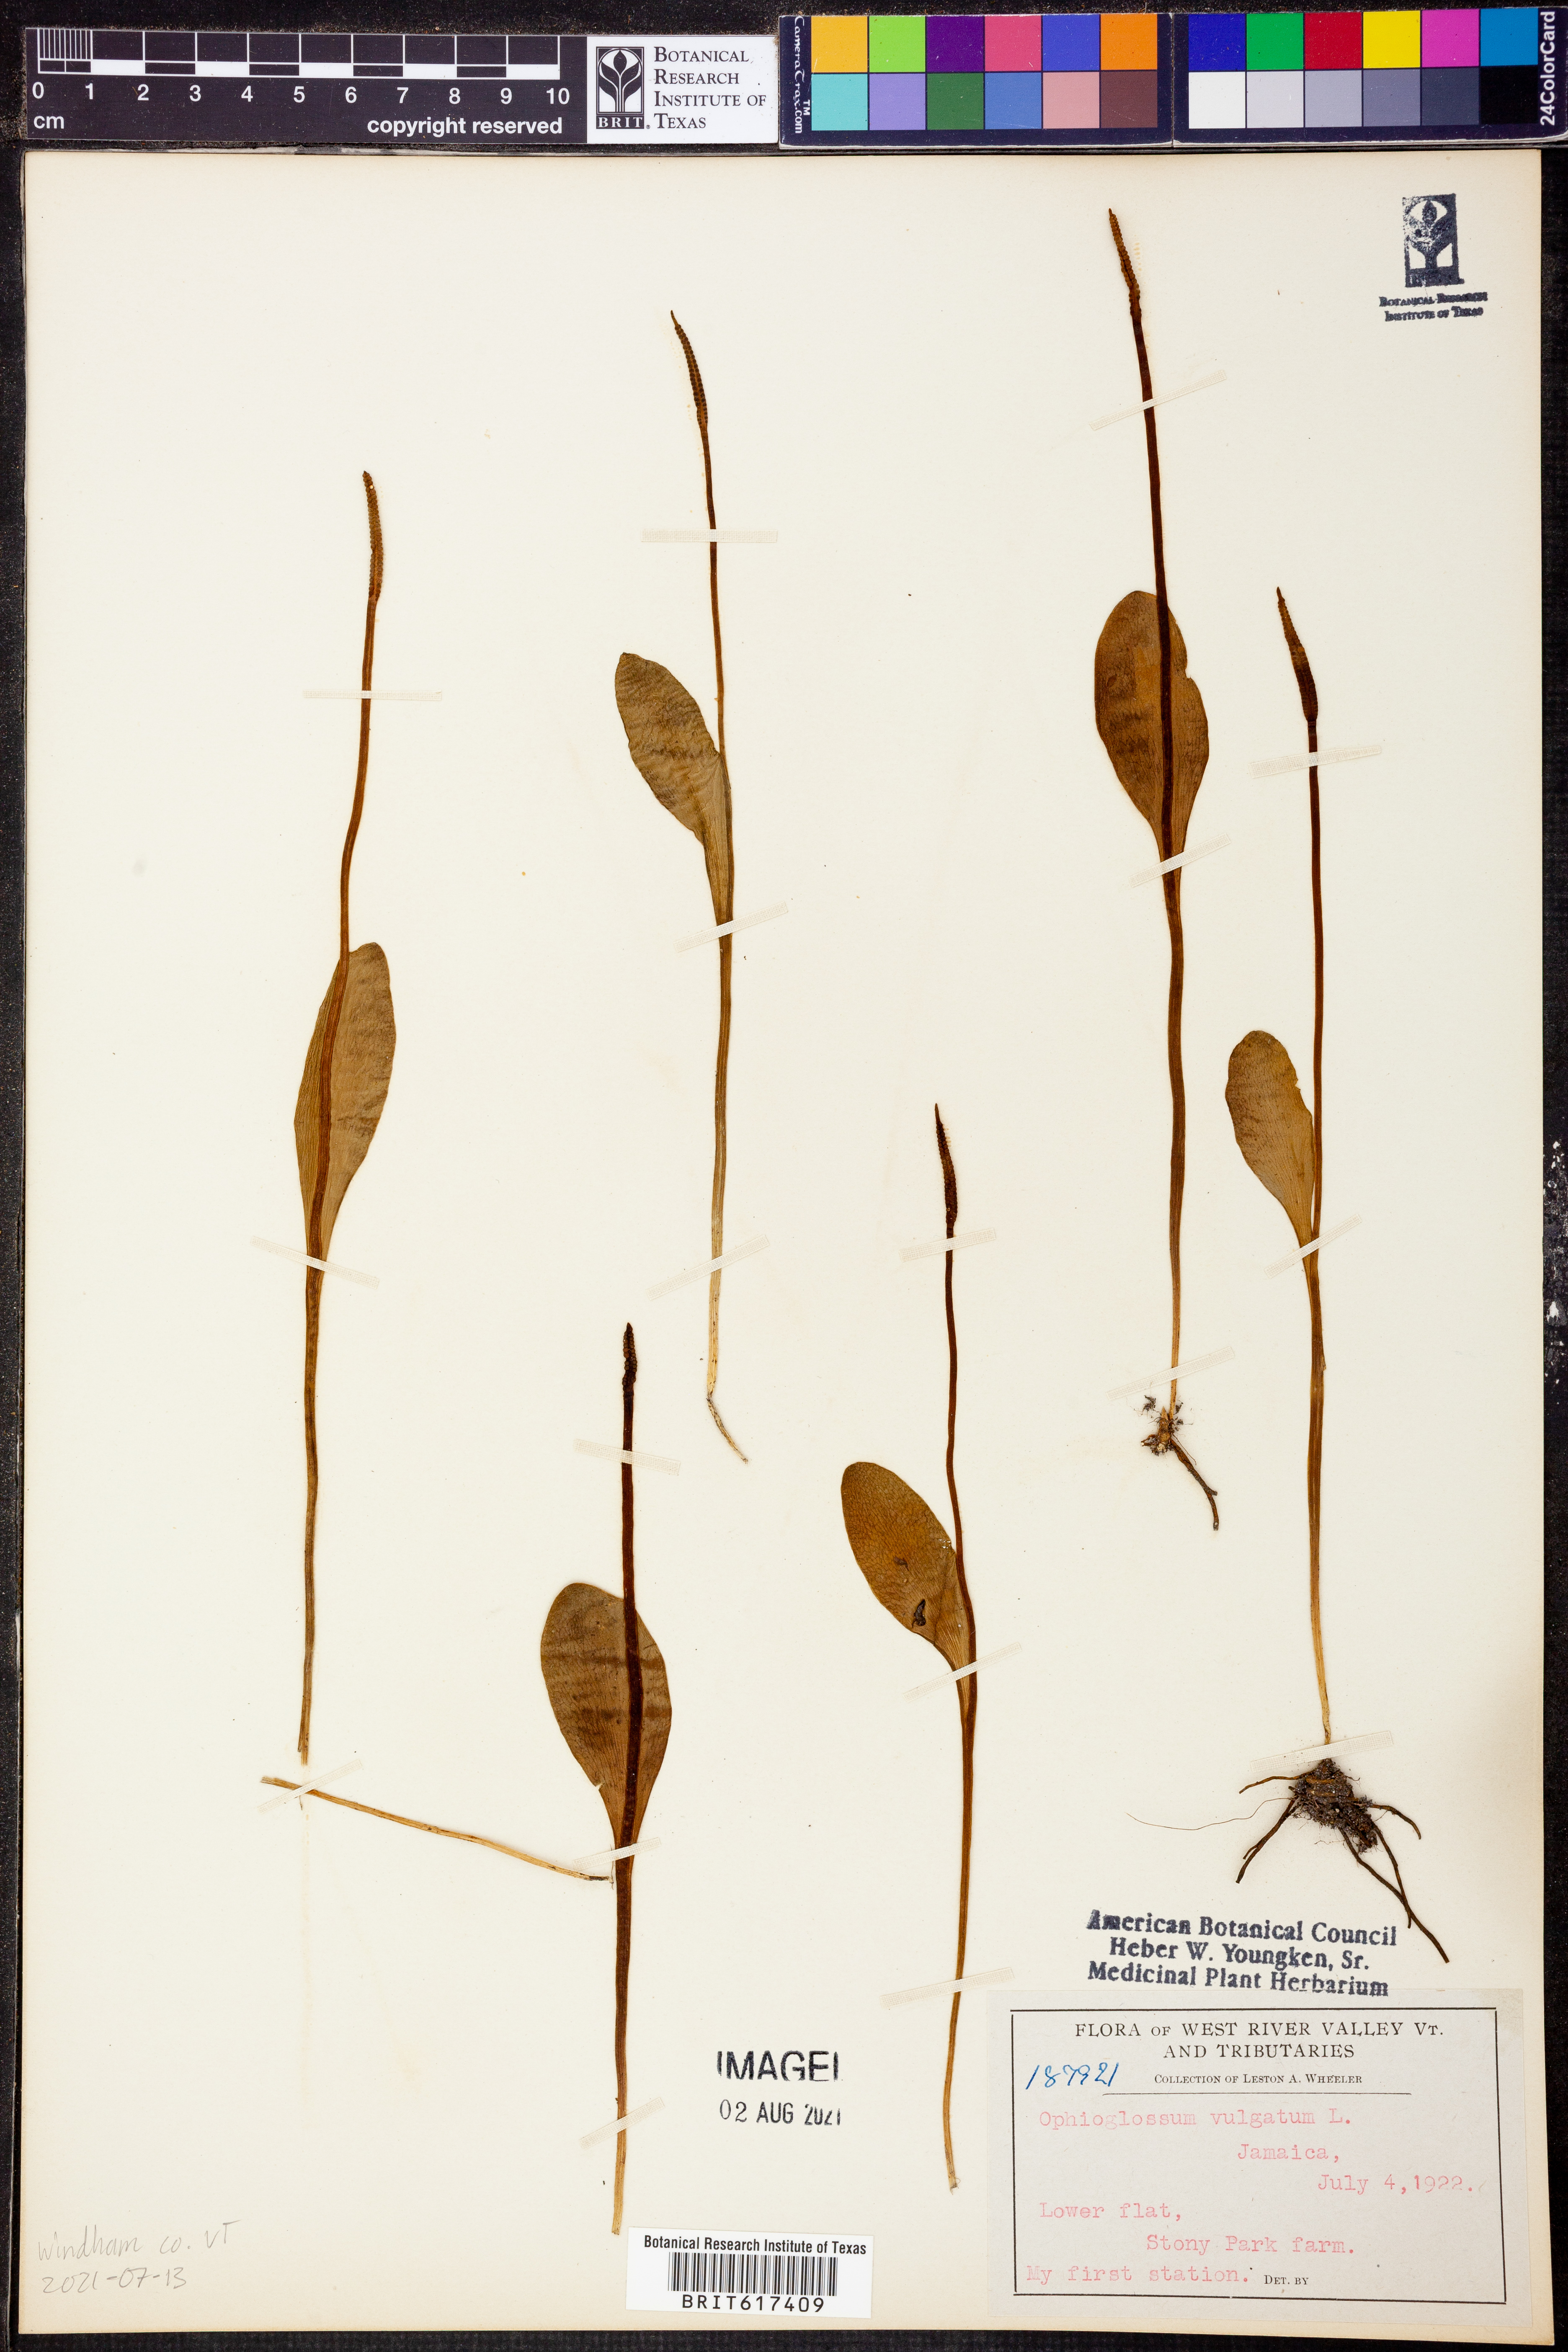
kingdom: Plantae
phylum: Tracheophyta
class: Polypodiopsida
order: Ophioglossales
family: Ophioglossaceae
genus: Ophioglossum
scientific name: Ophioglossum vulgatum
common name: Adder's-tongue
